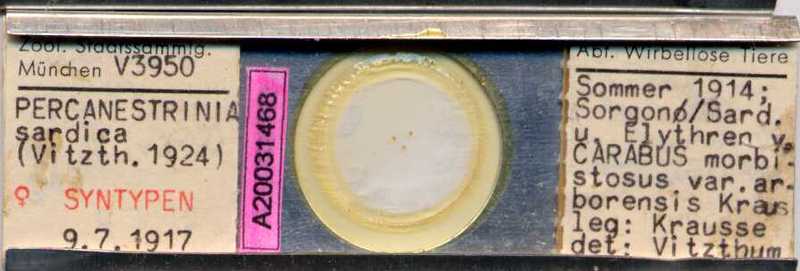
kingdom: Animalia
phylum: Arthropoda
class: Arachnida
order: Sarcoptiformes
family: Canestriniidae
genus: Canestrinia
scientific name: Canestrinia
